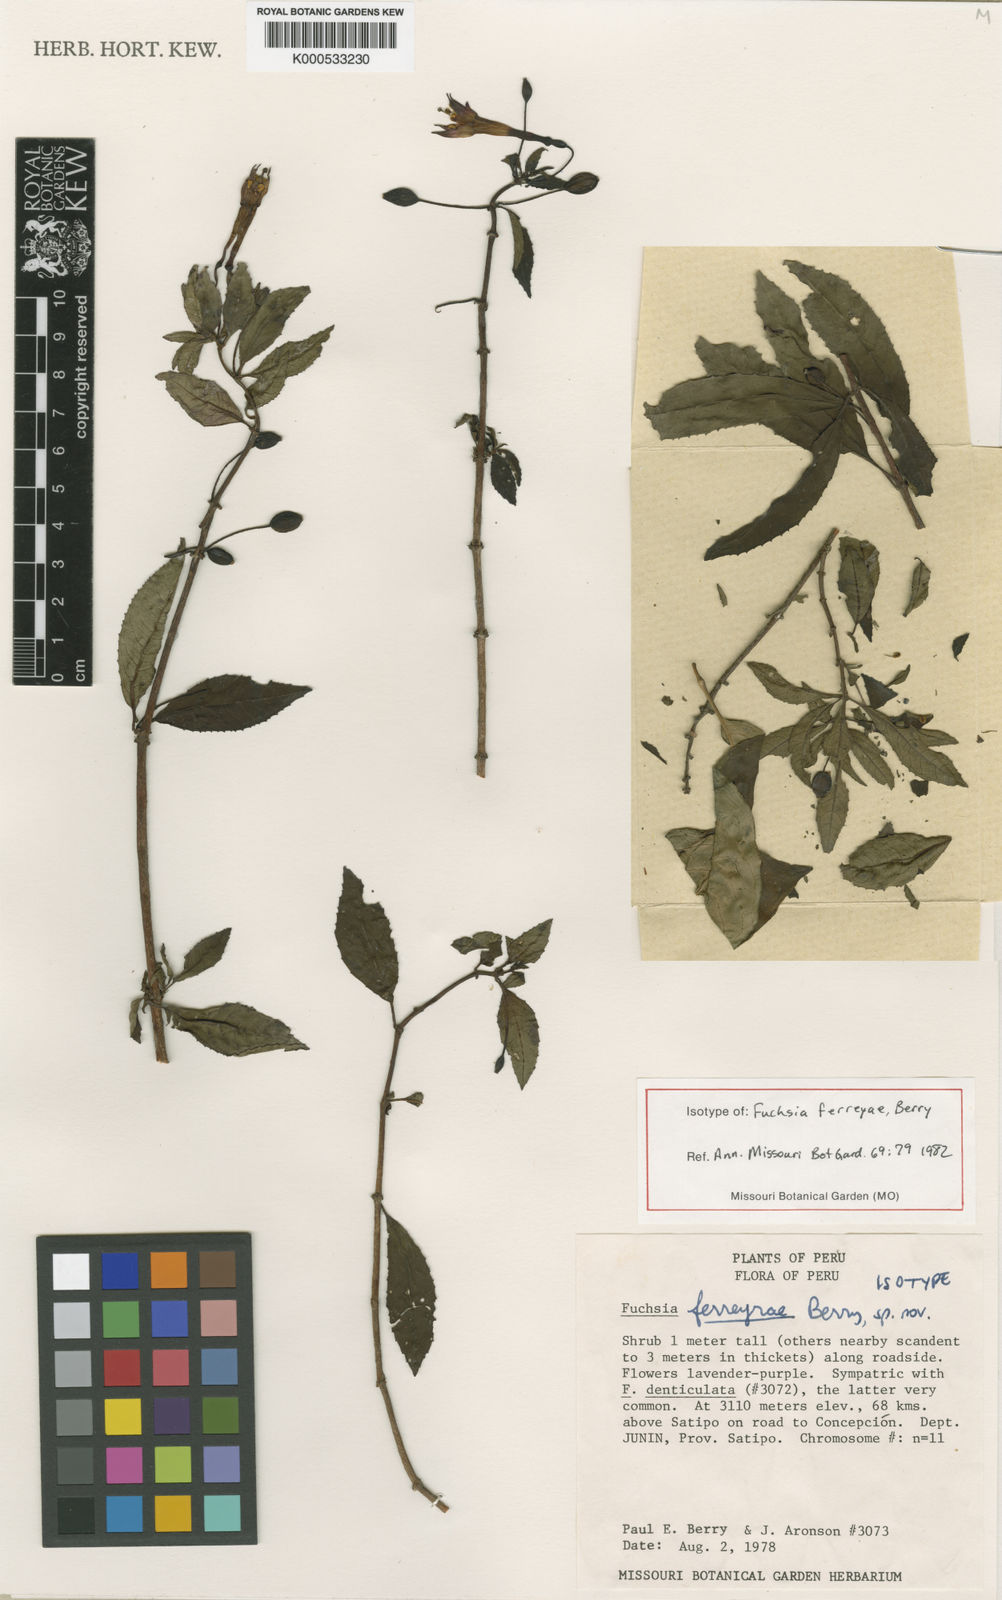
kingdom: Plantae
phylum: Tracheophyta
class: Magnoliopsida
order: Myrtales
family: Onagraceae
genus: Fuchsia
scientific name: Fuchsia ferreyrae
